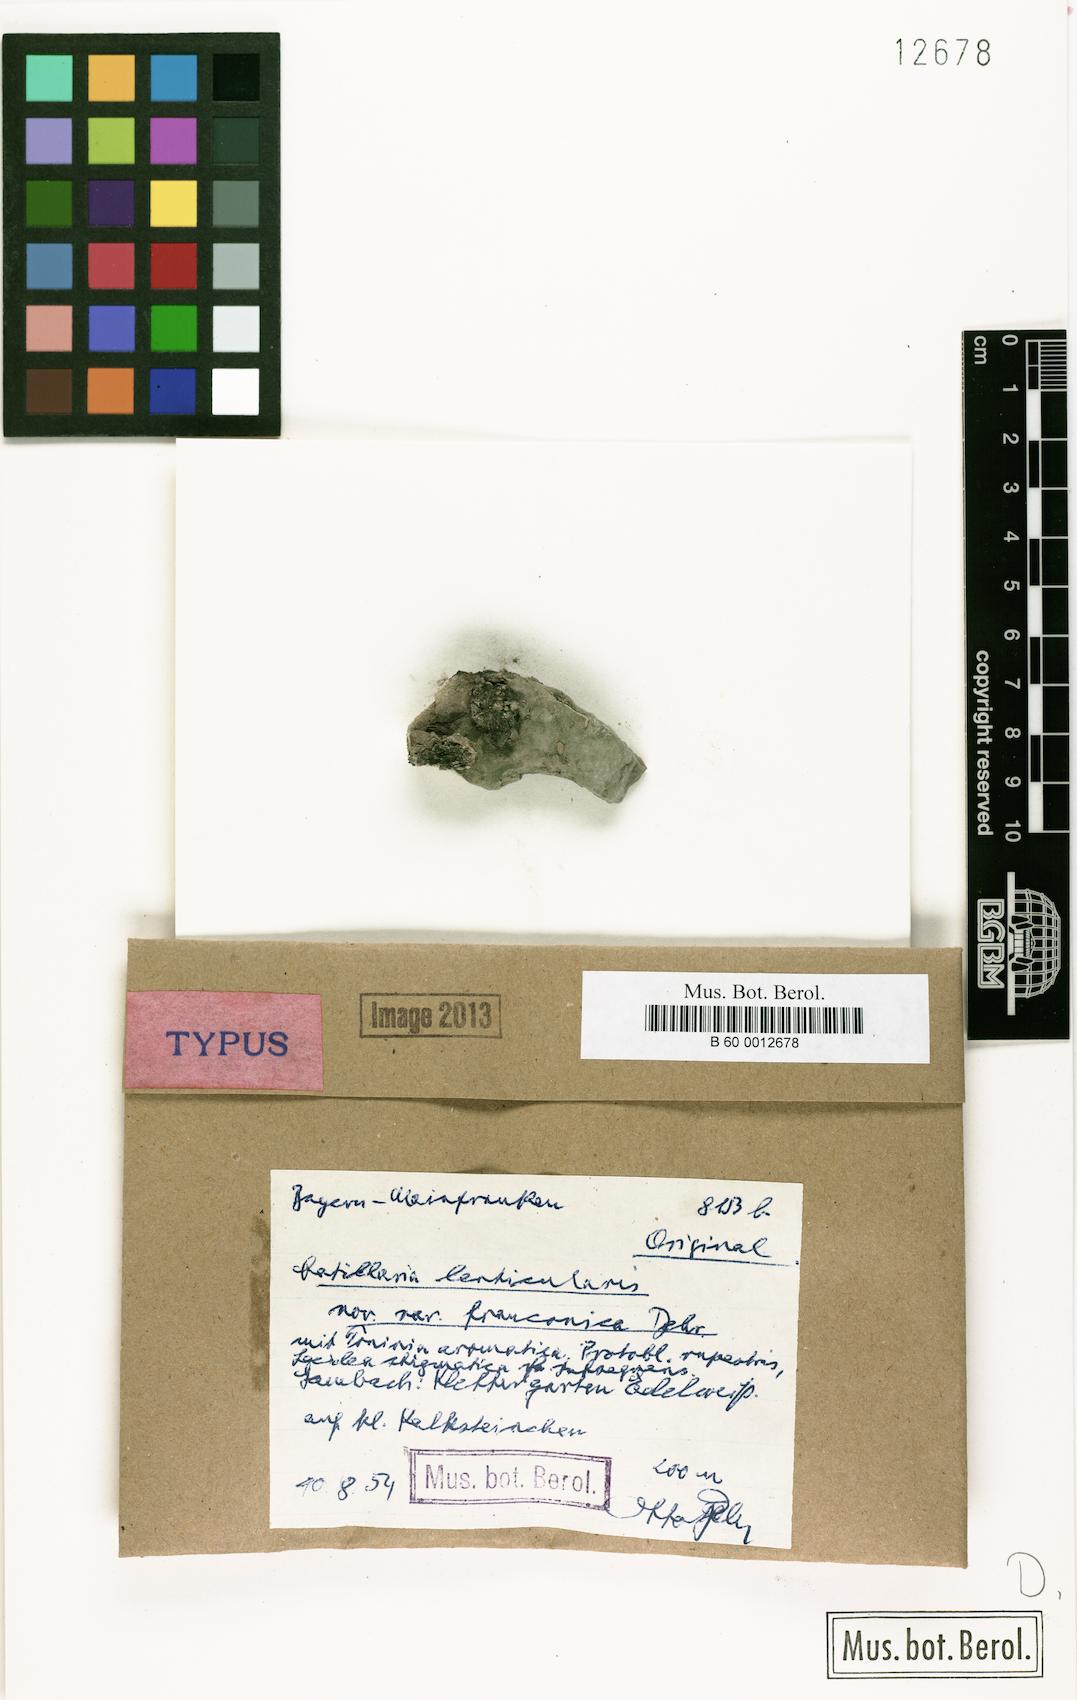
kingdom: Fungi
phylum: Ascomycota
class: Lecanoromycetes
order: Lecanorales
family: Catillariaceae
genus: Catillaria
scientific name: Catillaria lenticularis
